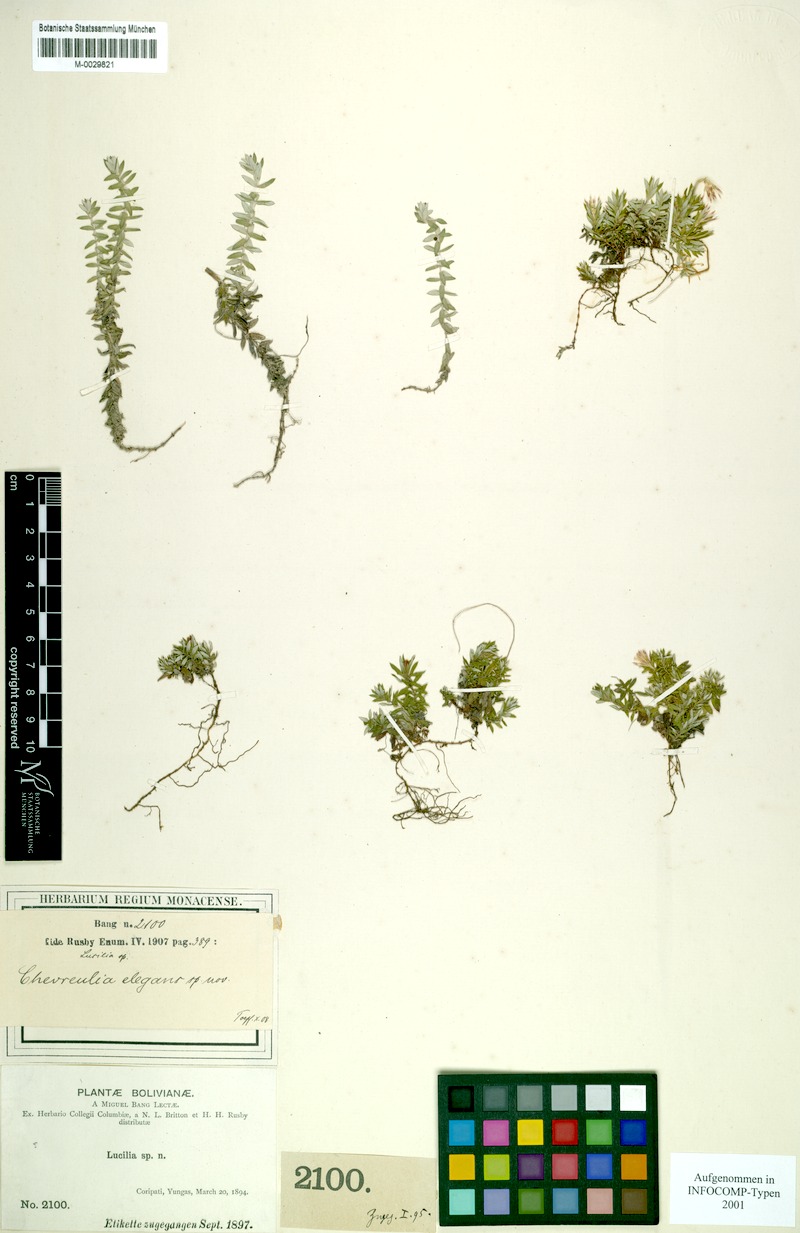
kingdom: Plantae
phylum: Tracheophyta
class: Magnoliopsida
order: Asterales
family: Asteraceae
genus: Chevreulia
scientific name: Chevreulia acuminata
